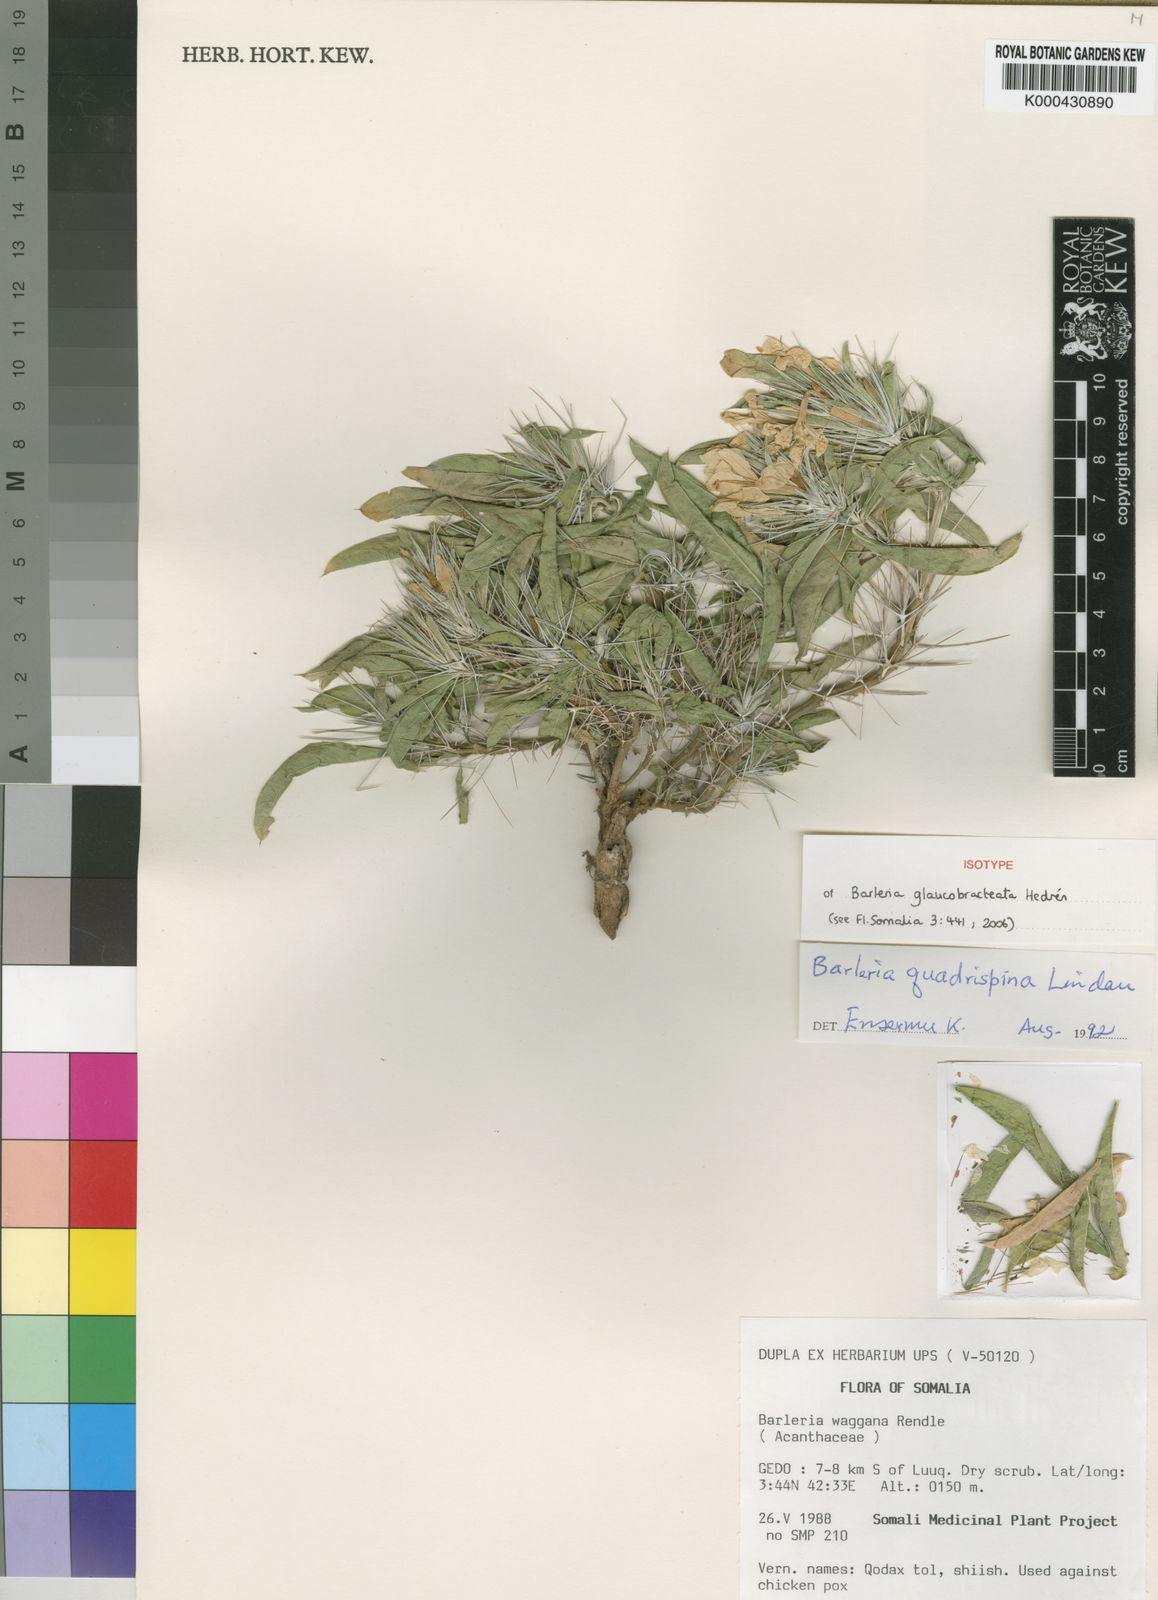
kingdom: Plantae
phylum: Tracheophyta
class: Magnoliopsida
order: Lamiales
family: Acanthaceae
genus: Barleria
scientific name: Barleria quadrispina
